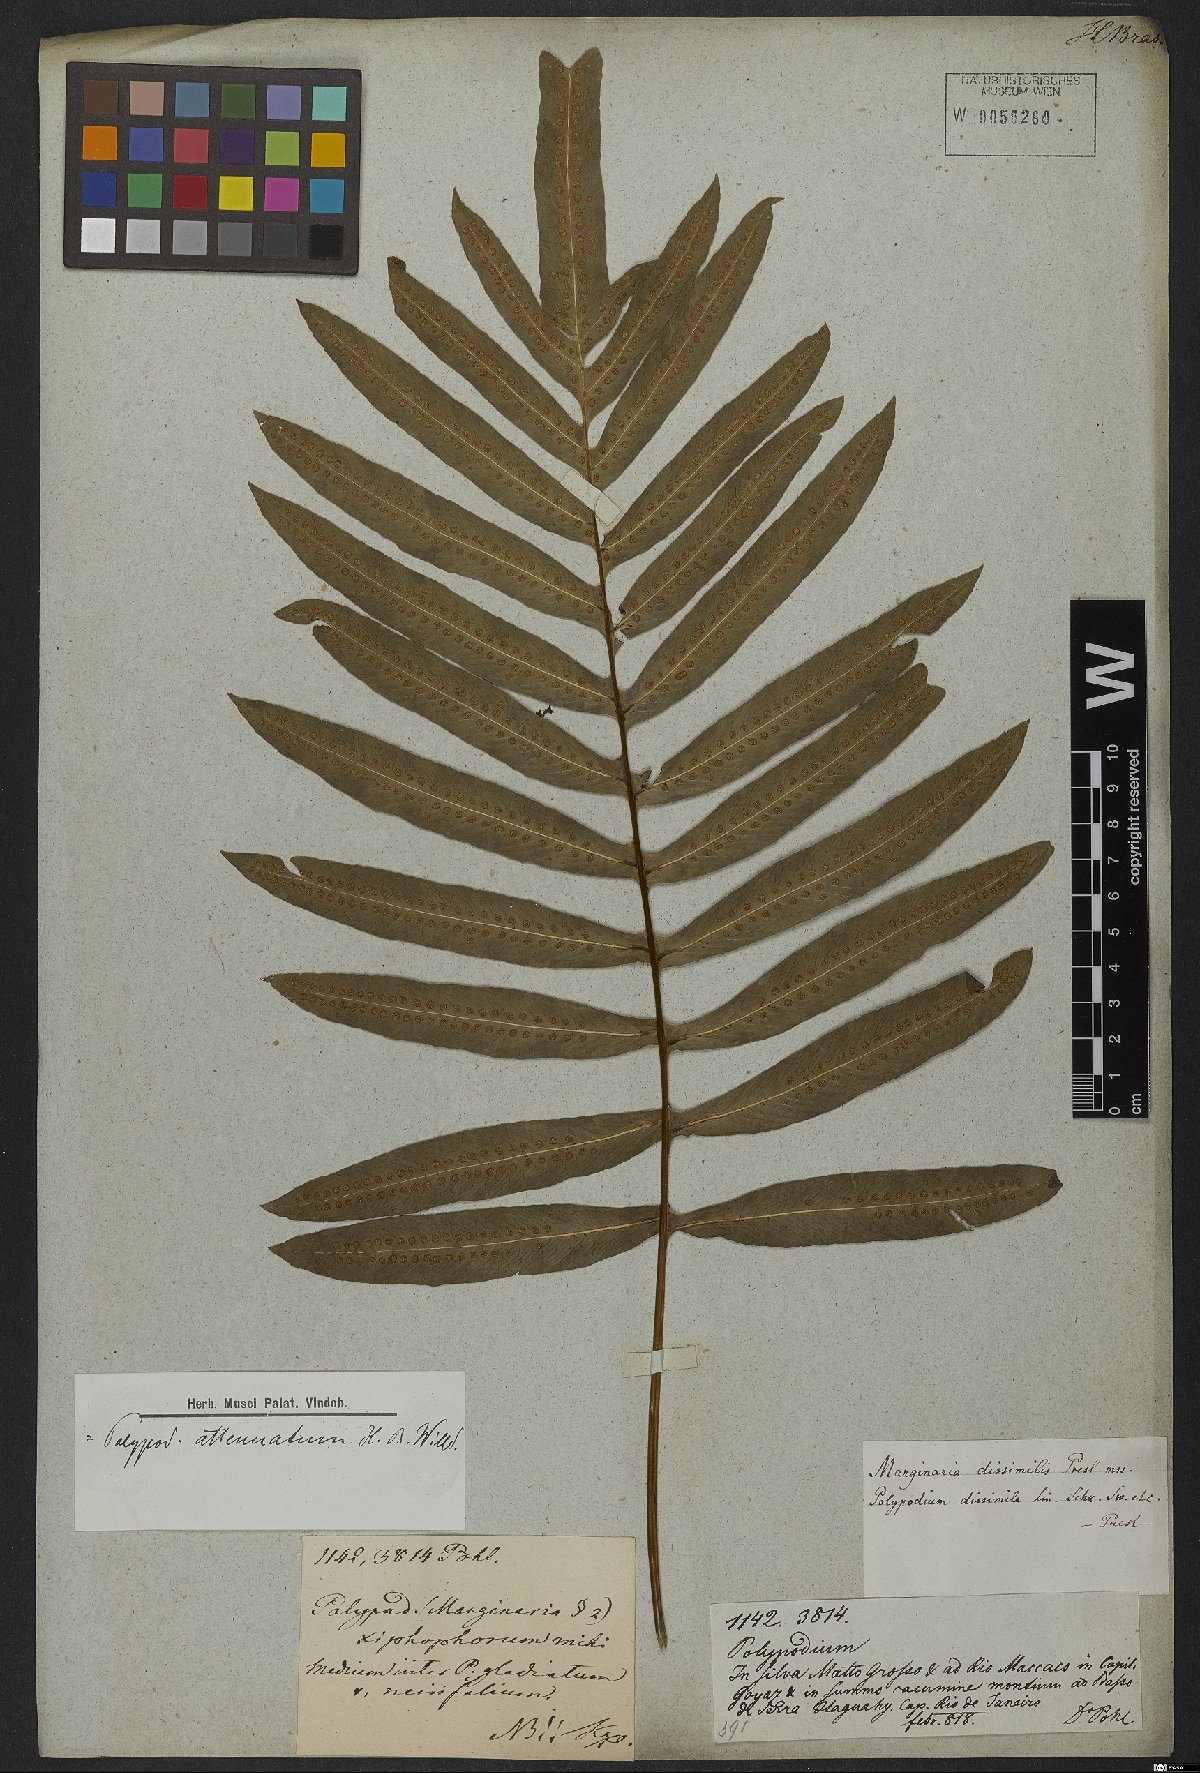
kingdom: Plantae
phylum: Tracheophyta
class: Polypodiopsida
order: Polypodiales
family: Polypodiaceae
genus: Serpocaulon
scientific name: Serpocaulon attenuatum
